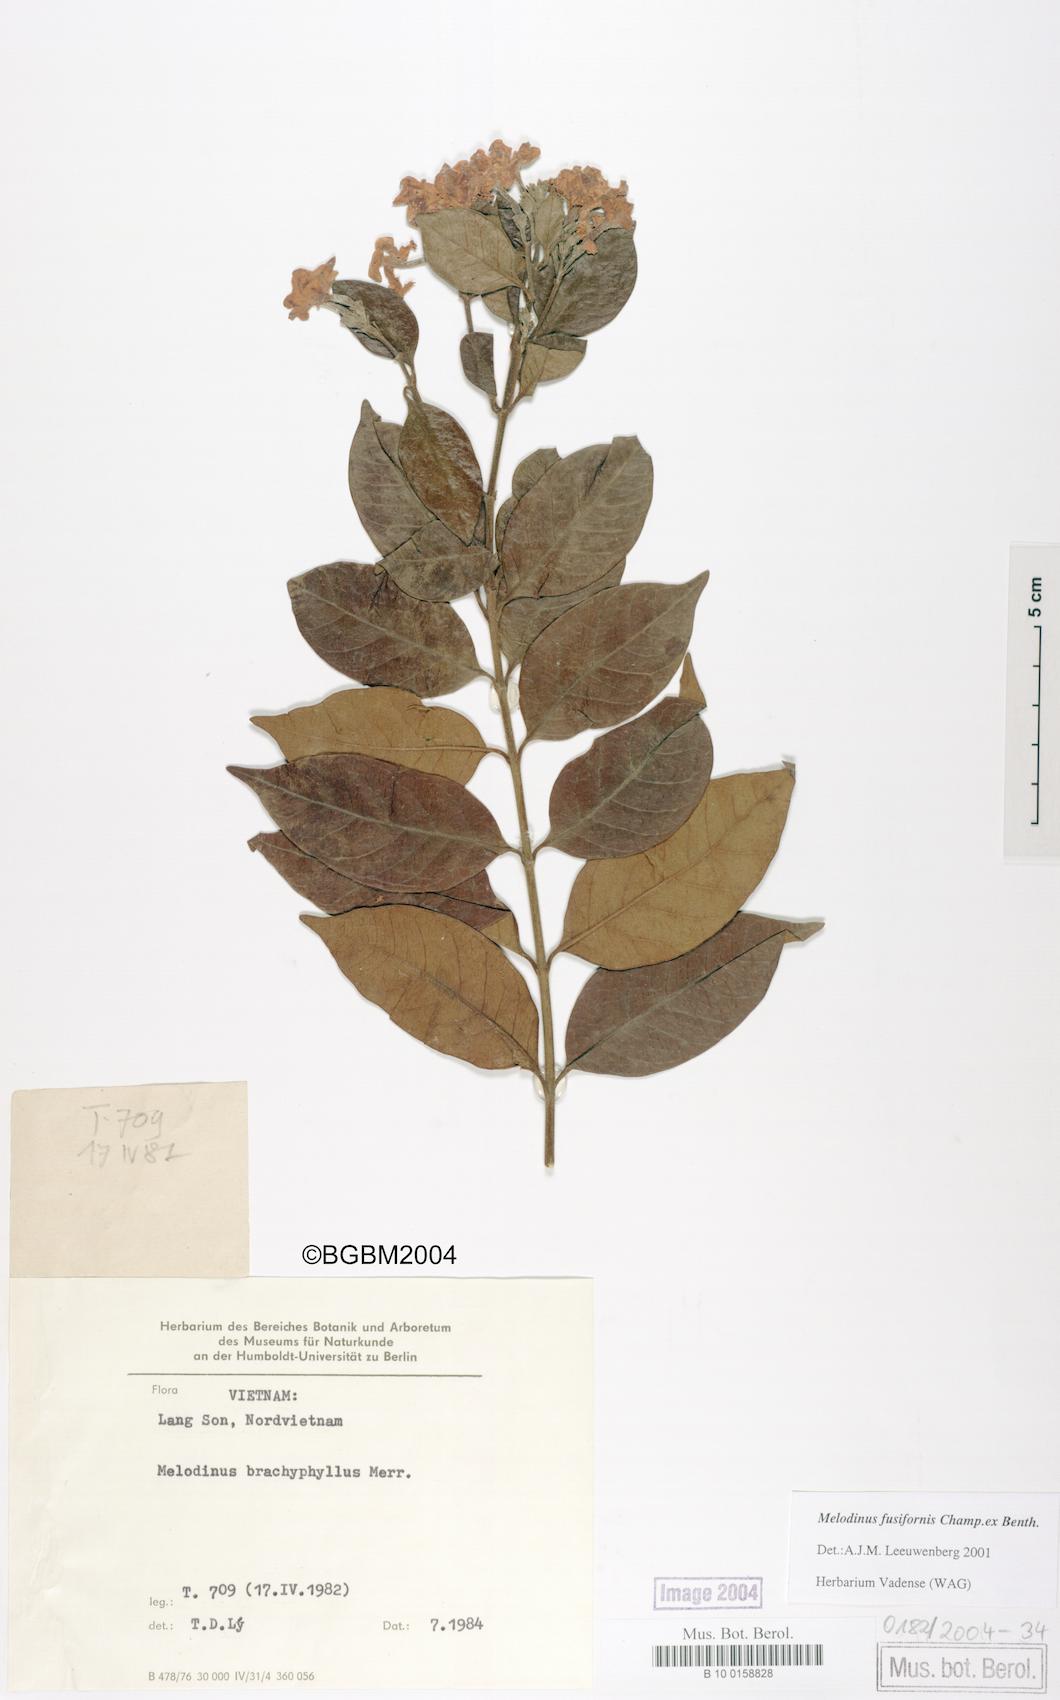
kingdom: Plantae
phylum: Tracheophyta
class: Magnoliopsida
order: Gentianales
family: Apocynaceae
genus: Melodinus
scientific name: Melodinus fusiformis
